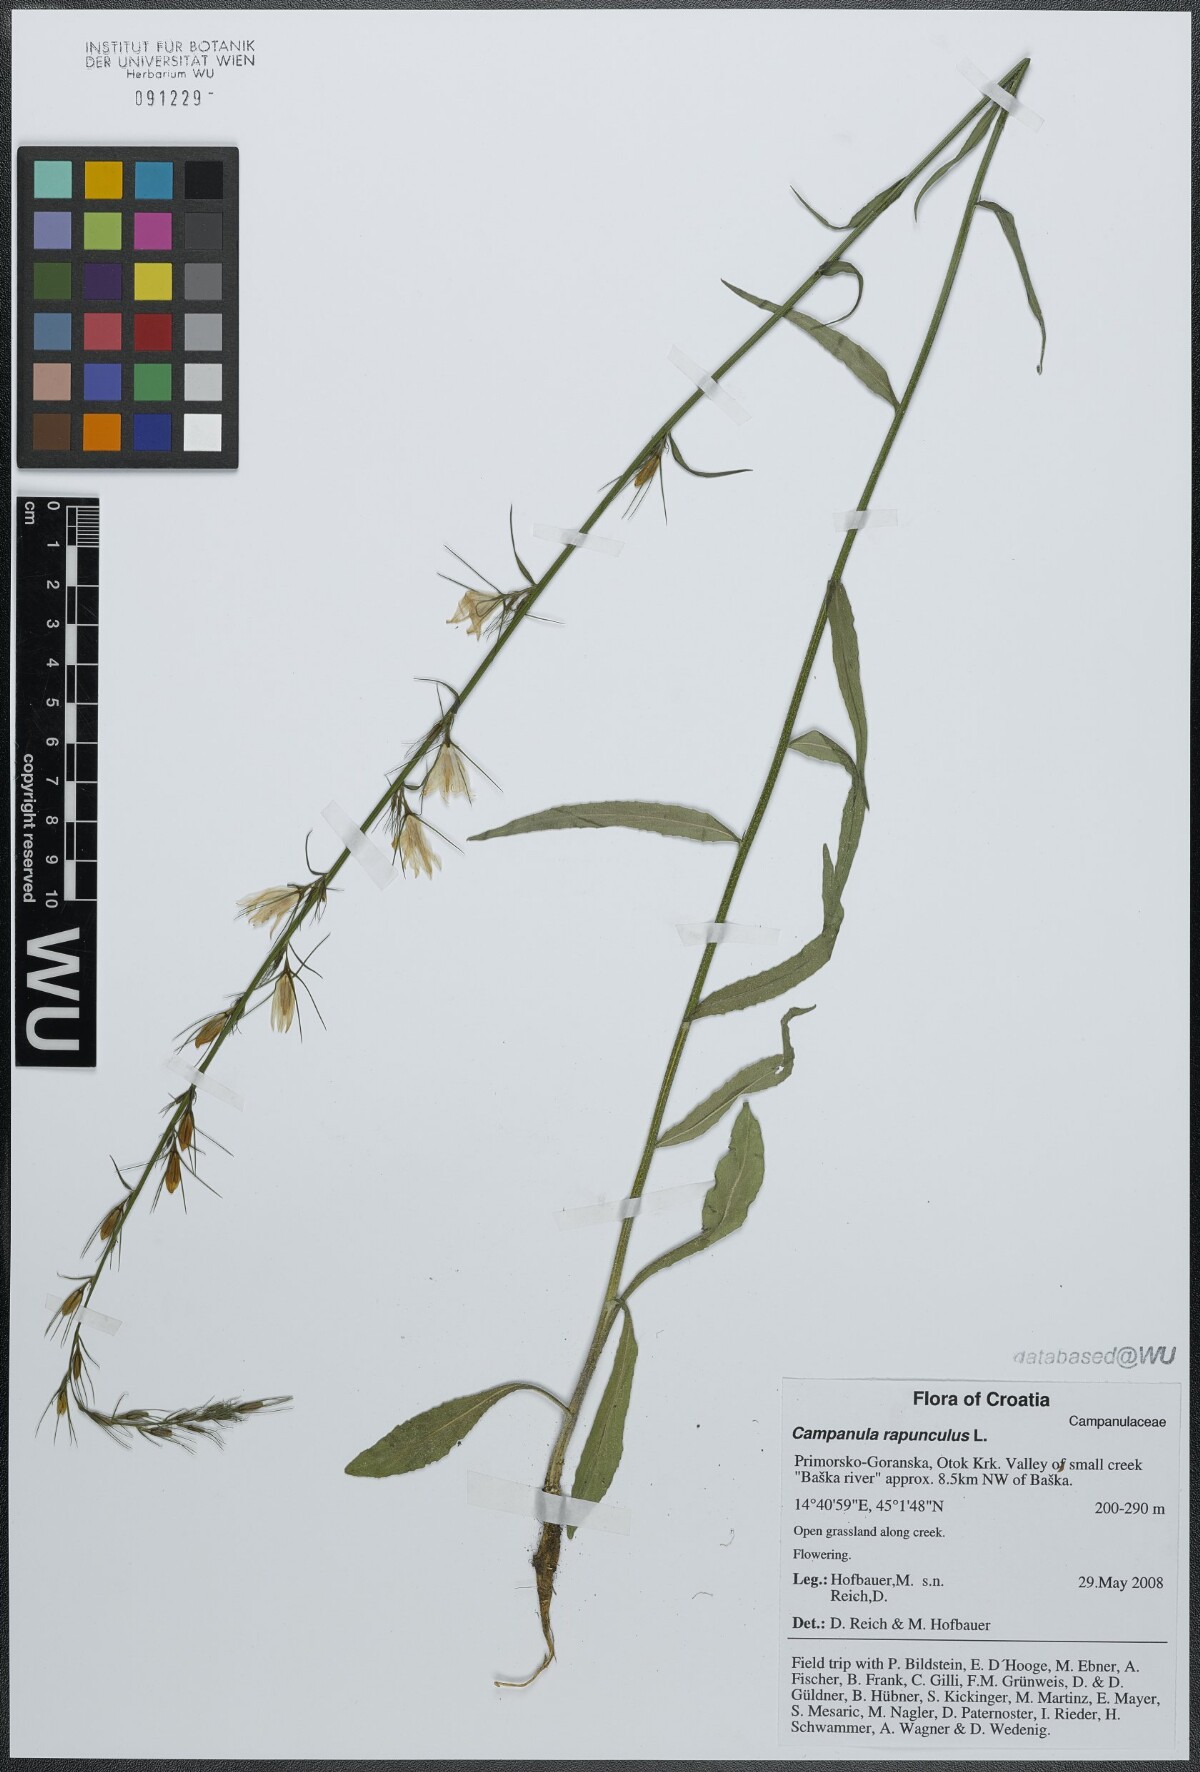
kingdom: Plantae
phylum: Tracheophyta
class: Magnoliopsida
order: Asterales
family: Campanulaceae
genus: Campanula
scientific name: Campanula rapunculus
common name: Rampion bellflower
